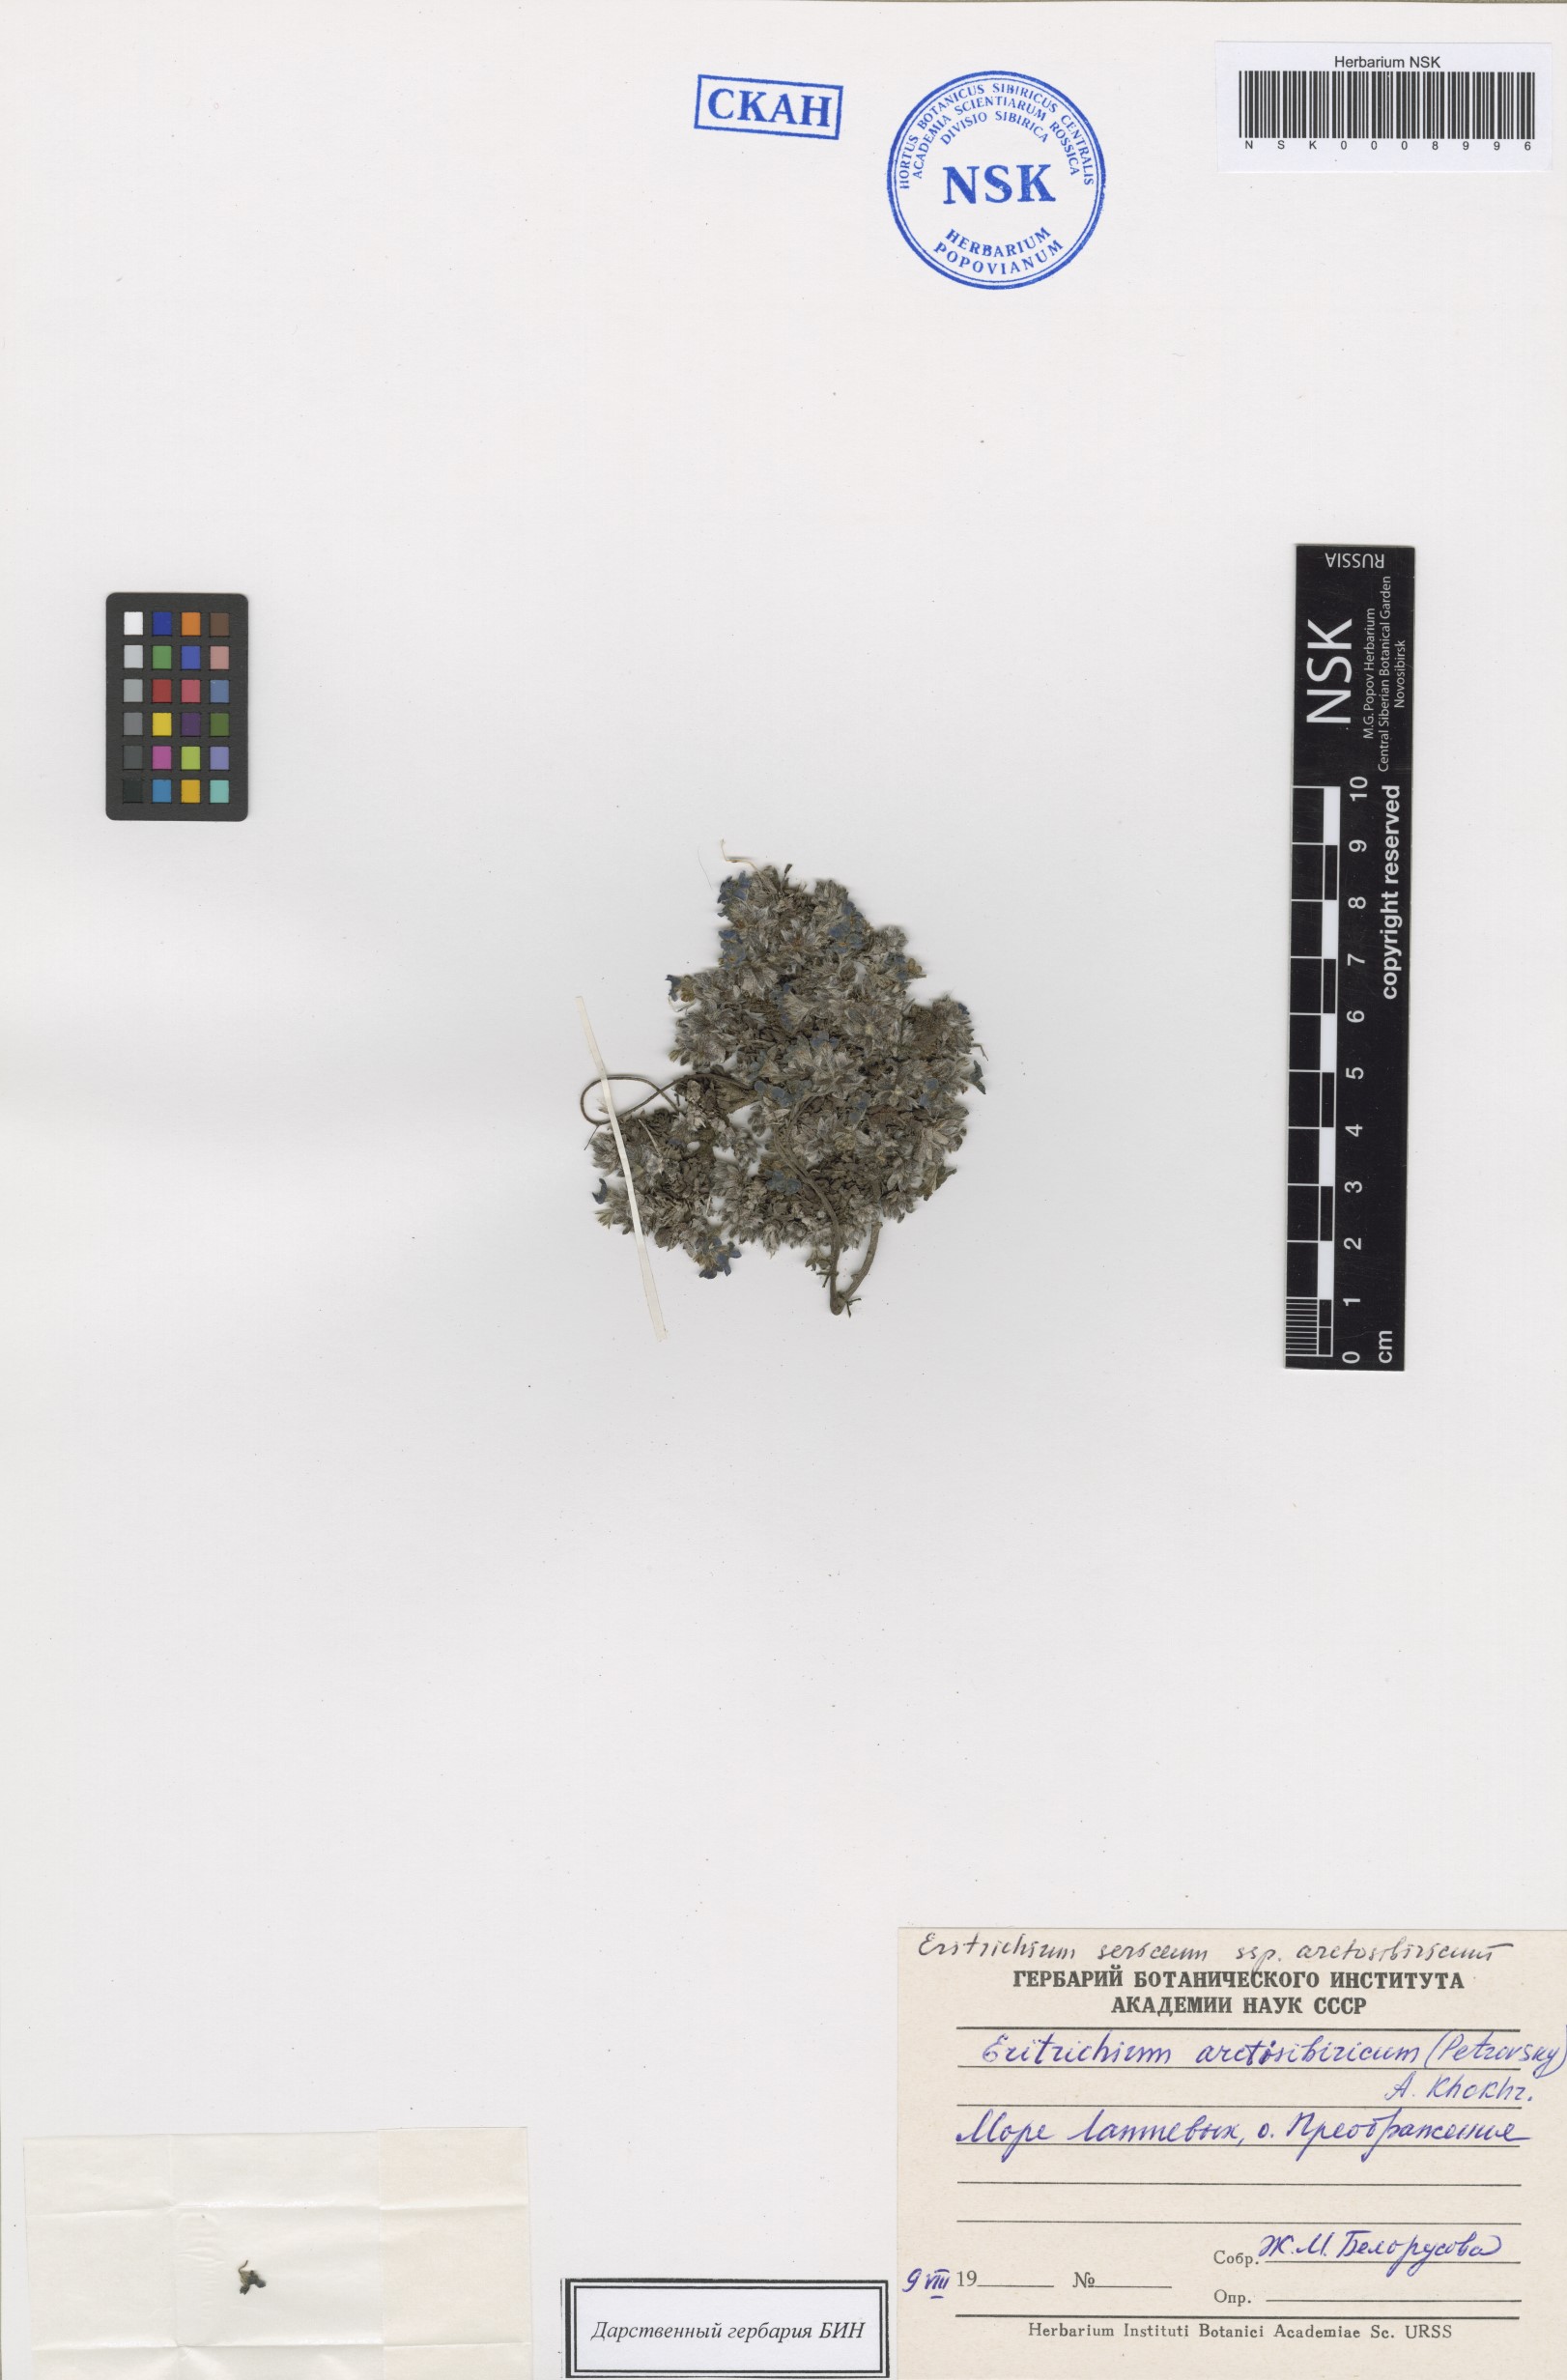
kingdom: Plantae
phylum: Tracheophyta
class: Magnoliopsida
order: Boraginales
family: Boraginaceae
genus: Eritrichium
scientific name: Eritrichium arctisibiricum
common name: Beringian alpine forget-me-not
